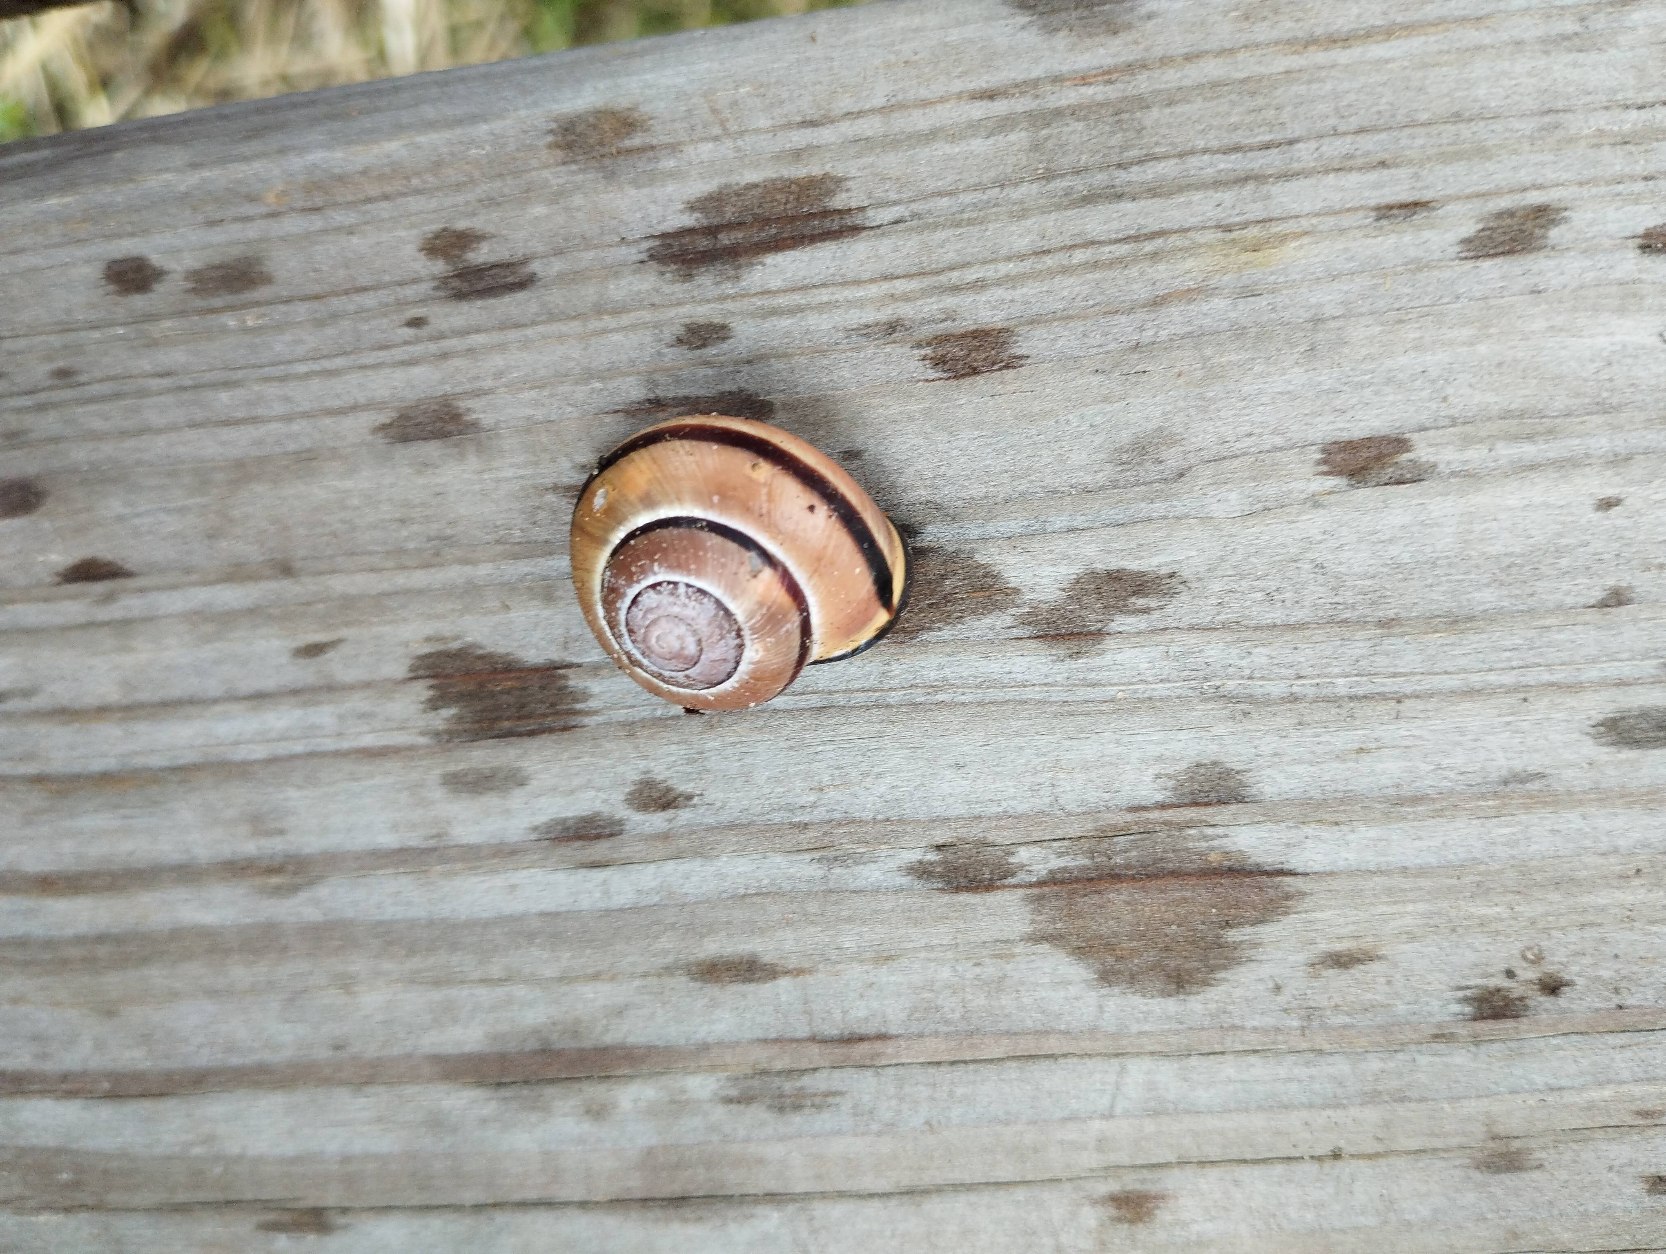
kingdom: Animalia
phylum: Mollusca
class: Gastropoda
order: Stylommatophora
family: Helicidae
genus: Cepaea
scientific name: Cepaea nemoralis
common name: Lundsnegl
